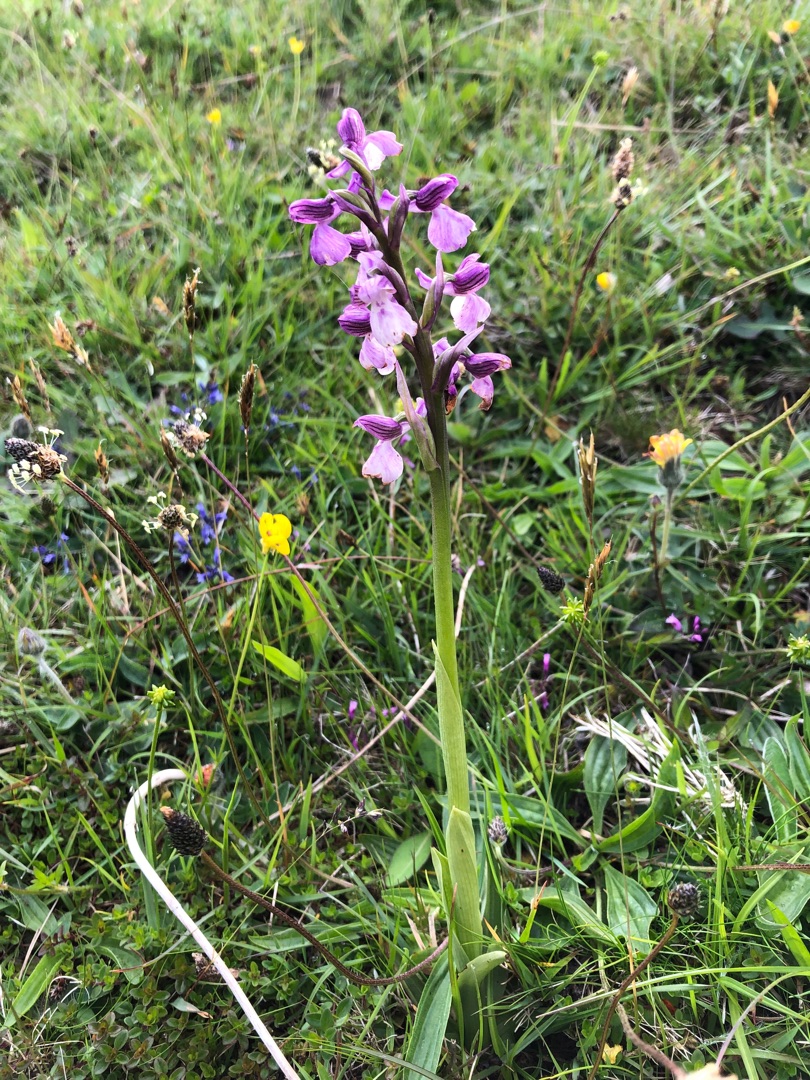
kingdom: Plantae
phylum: Tracheophyta
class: Liliopsida
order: Asparagales
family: Orchidaceae
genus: Anacamptis
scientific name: Anacamptis morio
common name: Salepgøgeurt
